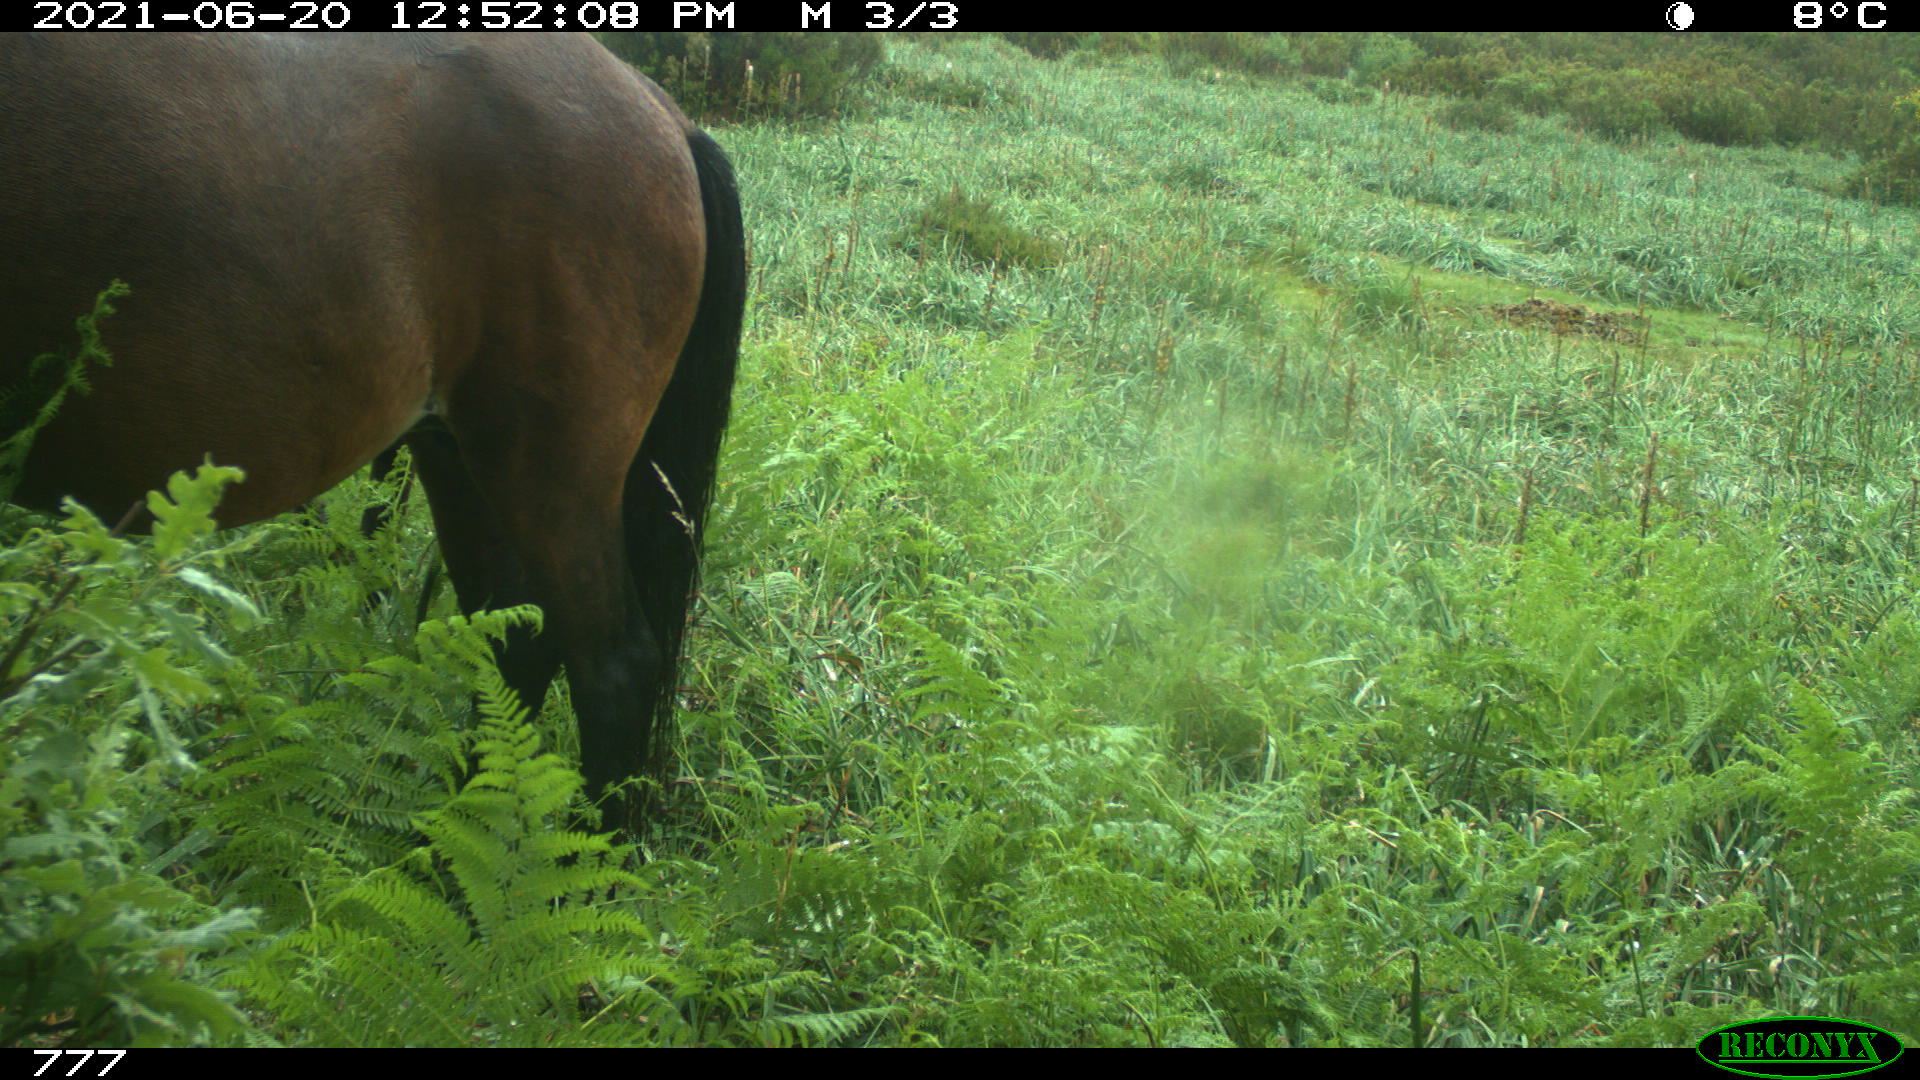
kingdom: Animalia
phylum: Chordata
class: Mammalia
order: Perissodactyla
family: Equidae
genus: Equus
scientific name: Equus caballus
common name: Horse
